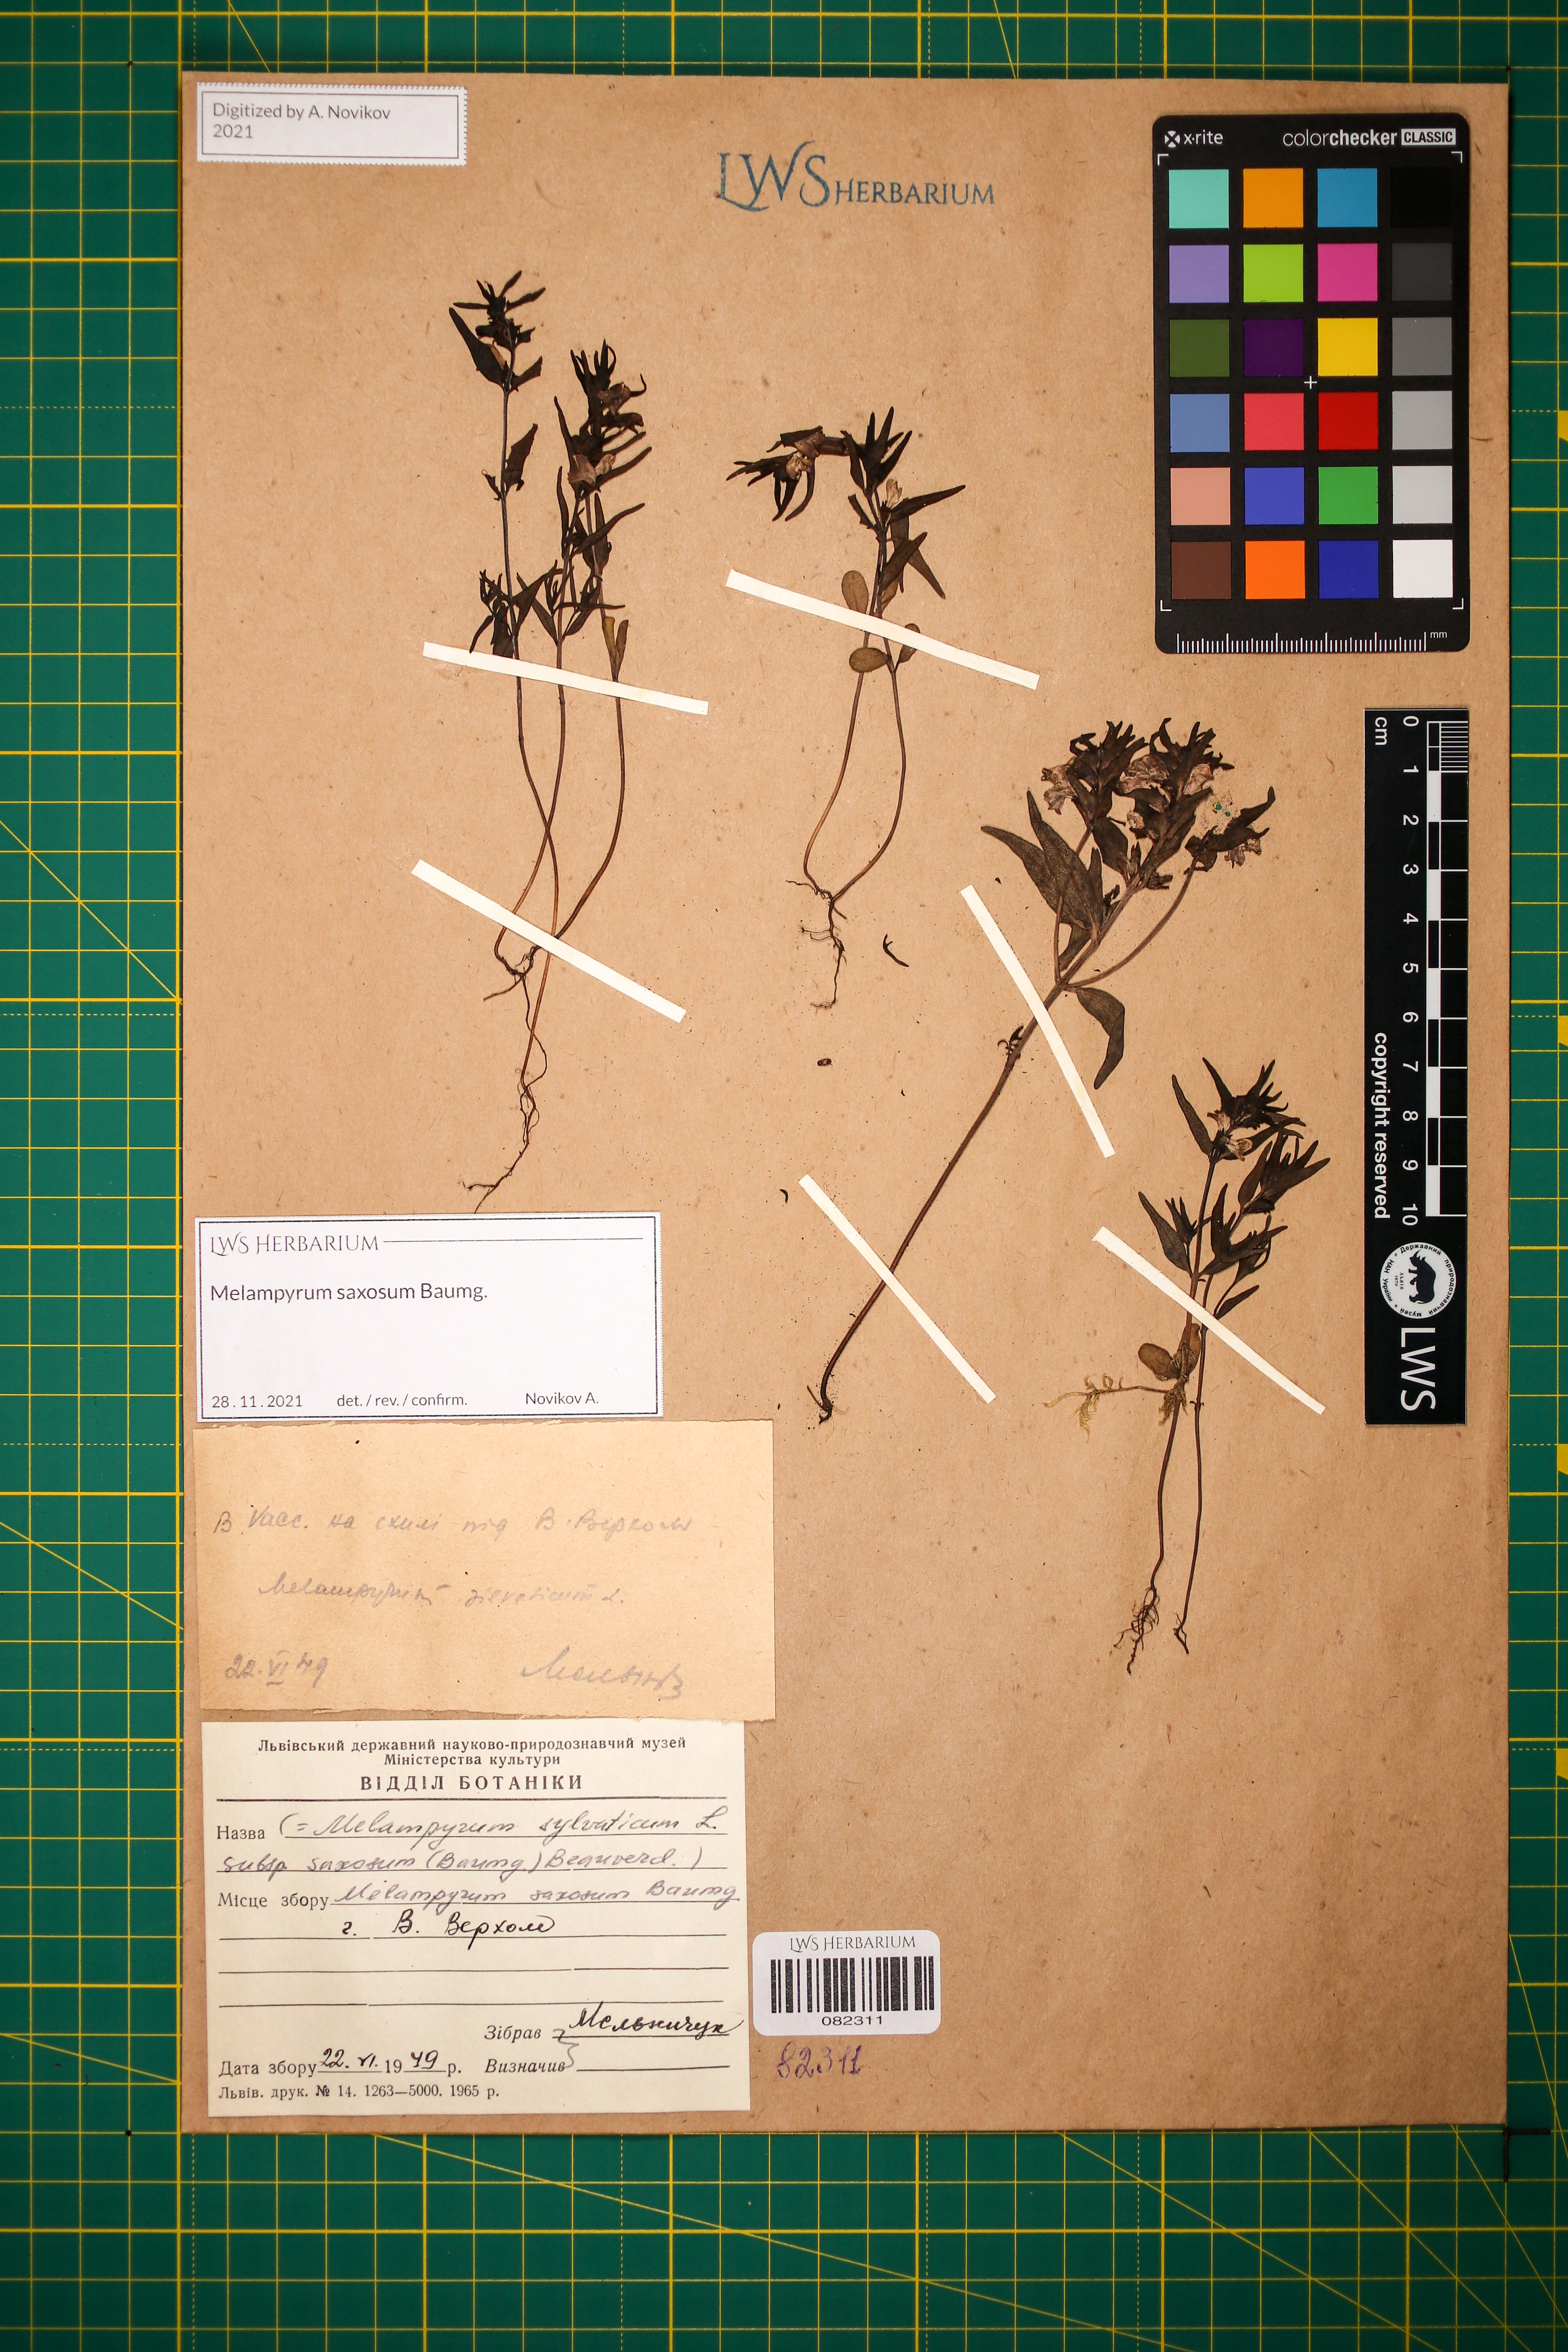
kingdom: Plantae
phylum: Tracheophyta
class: Magnoliopsida
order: Lamiales
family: Orobanchaceae
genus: Melampyrum
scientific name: Melampyrum saxosum
